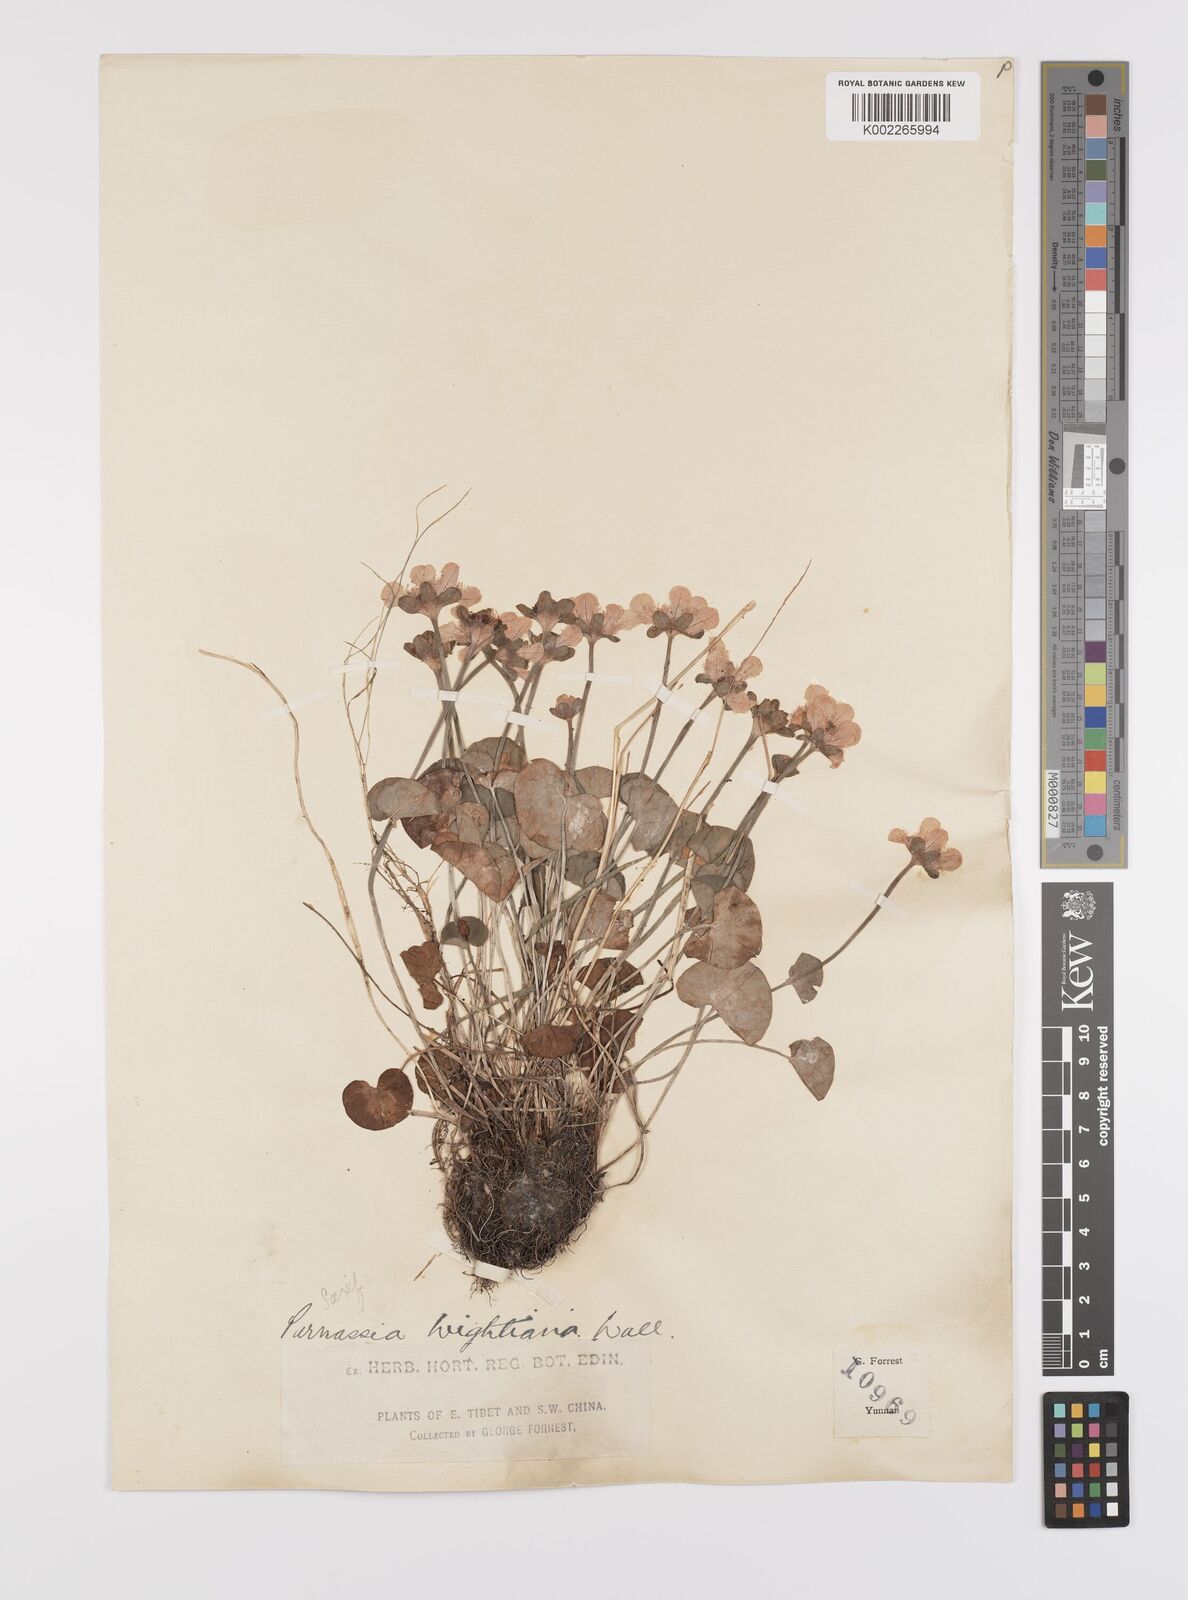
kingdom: Plantae
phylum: Tracheophyta
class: Magnoliopsida
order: Celastrales
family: Parnassiaceae
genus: Parnassia
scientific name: Parnassia wightiana
